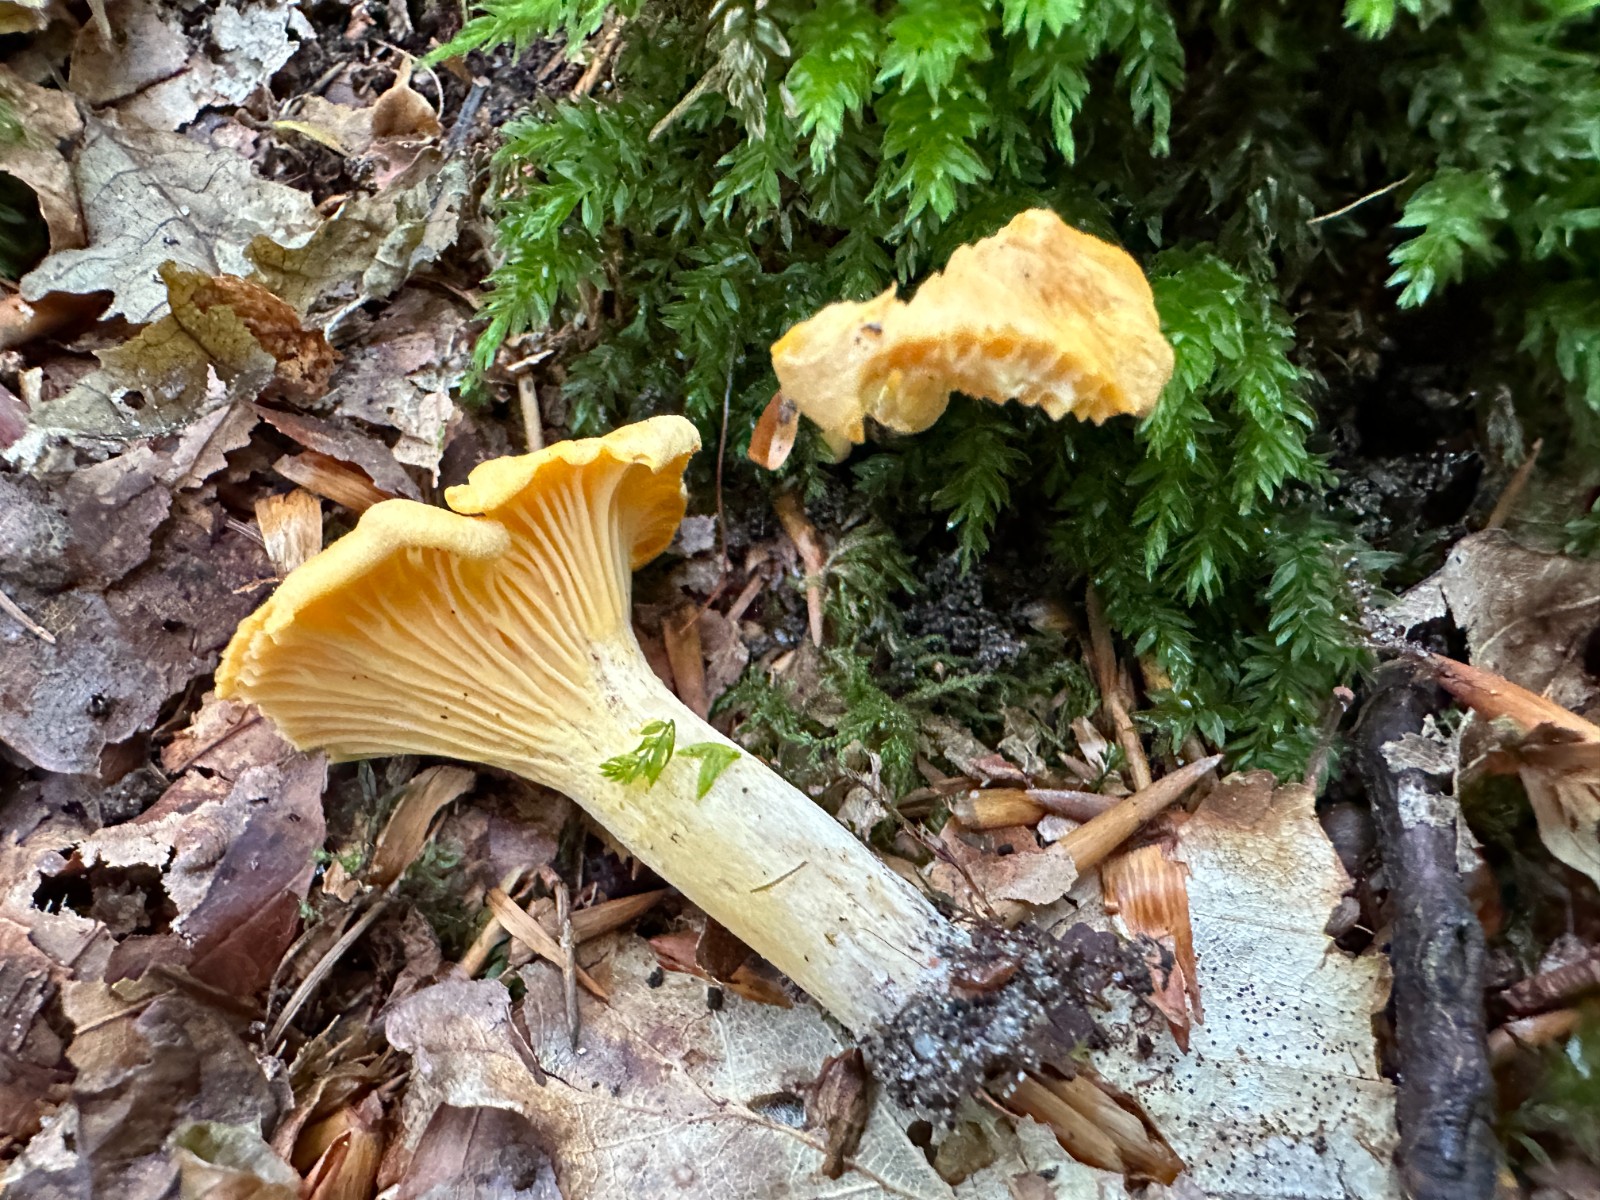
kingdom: Fungi
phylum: Basidiomycota
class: Agaricomycetes
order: Cantharellales
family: Hydnaceae
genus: Cantharellus
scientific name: Cantharellus pallens
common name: bleg kantarel
